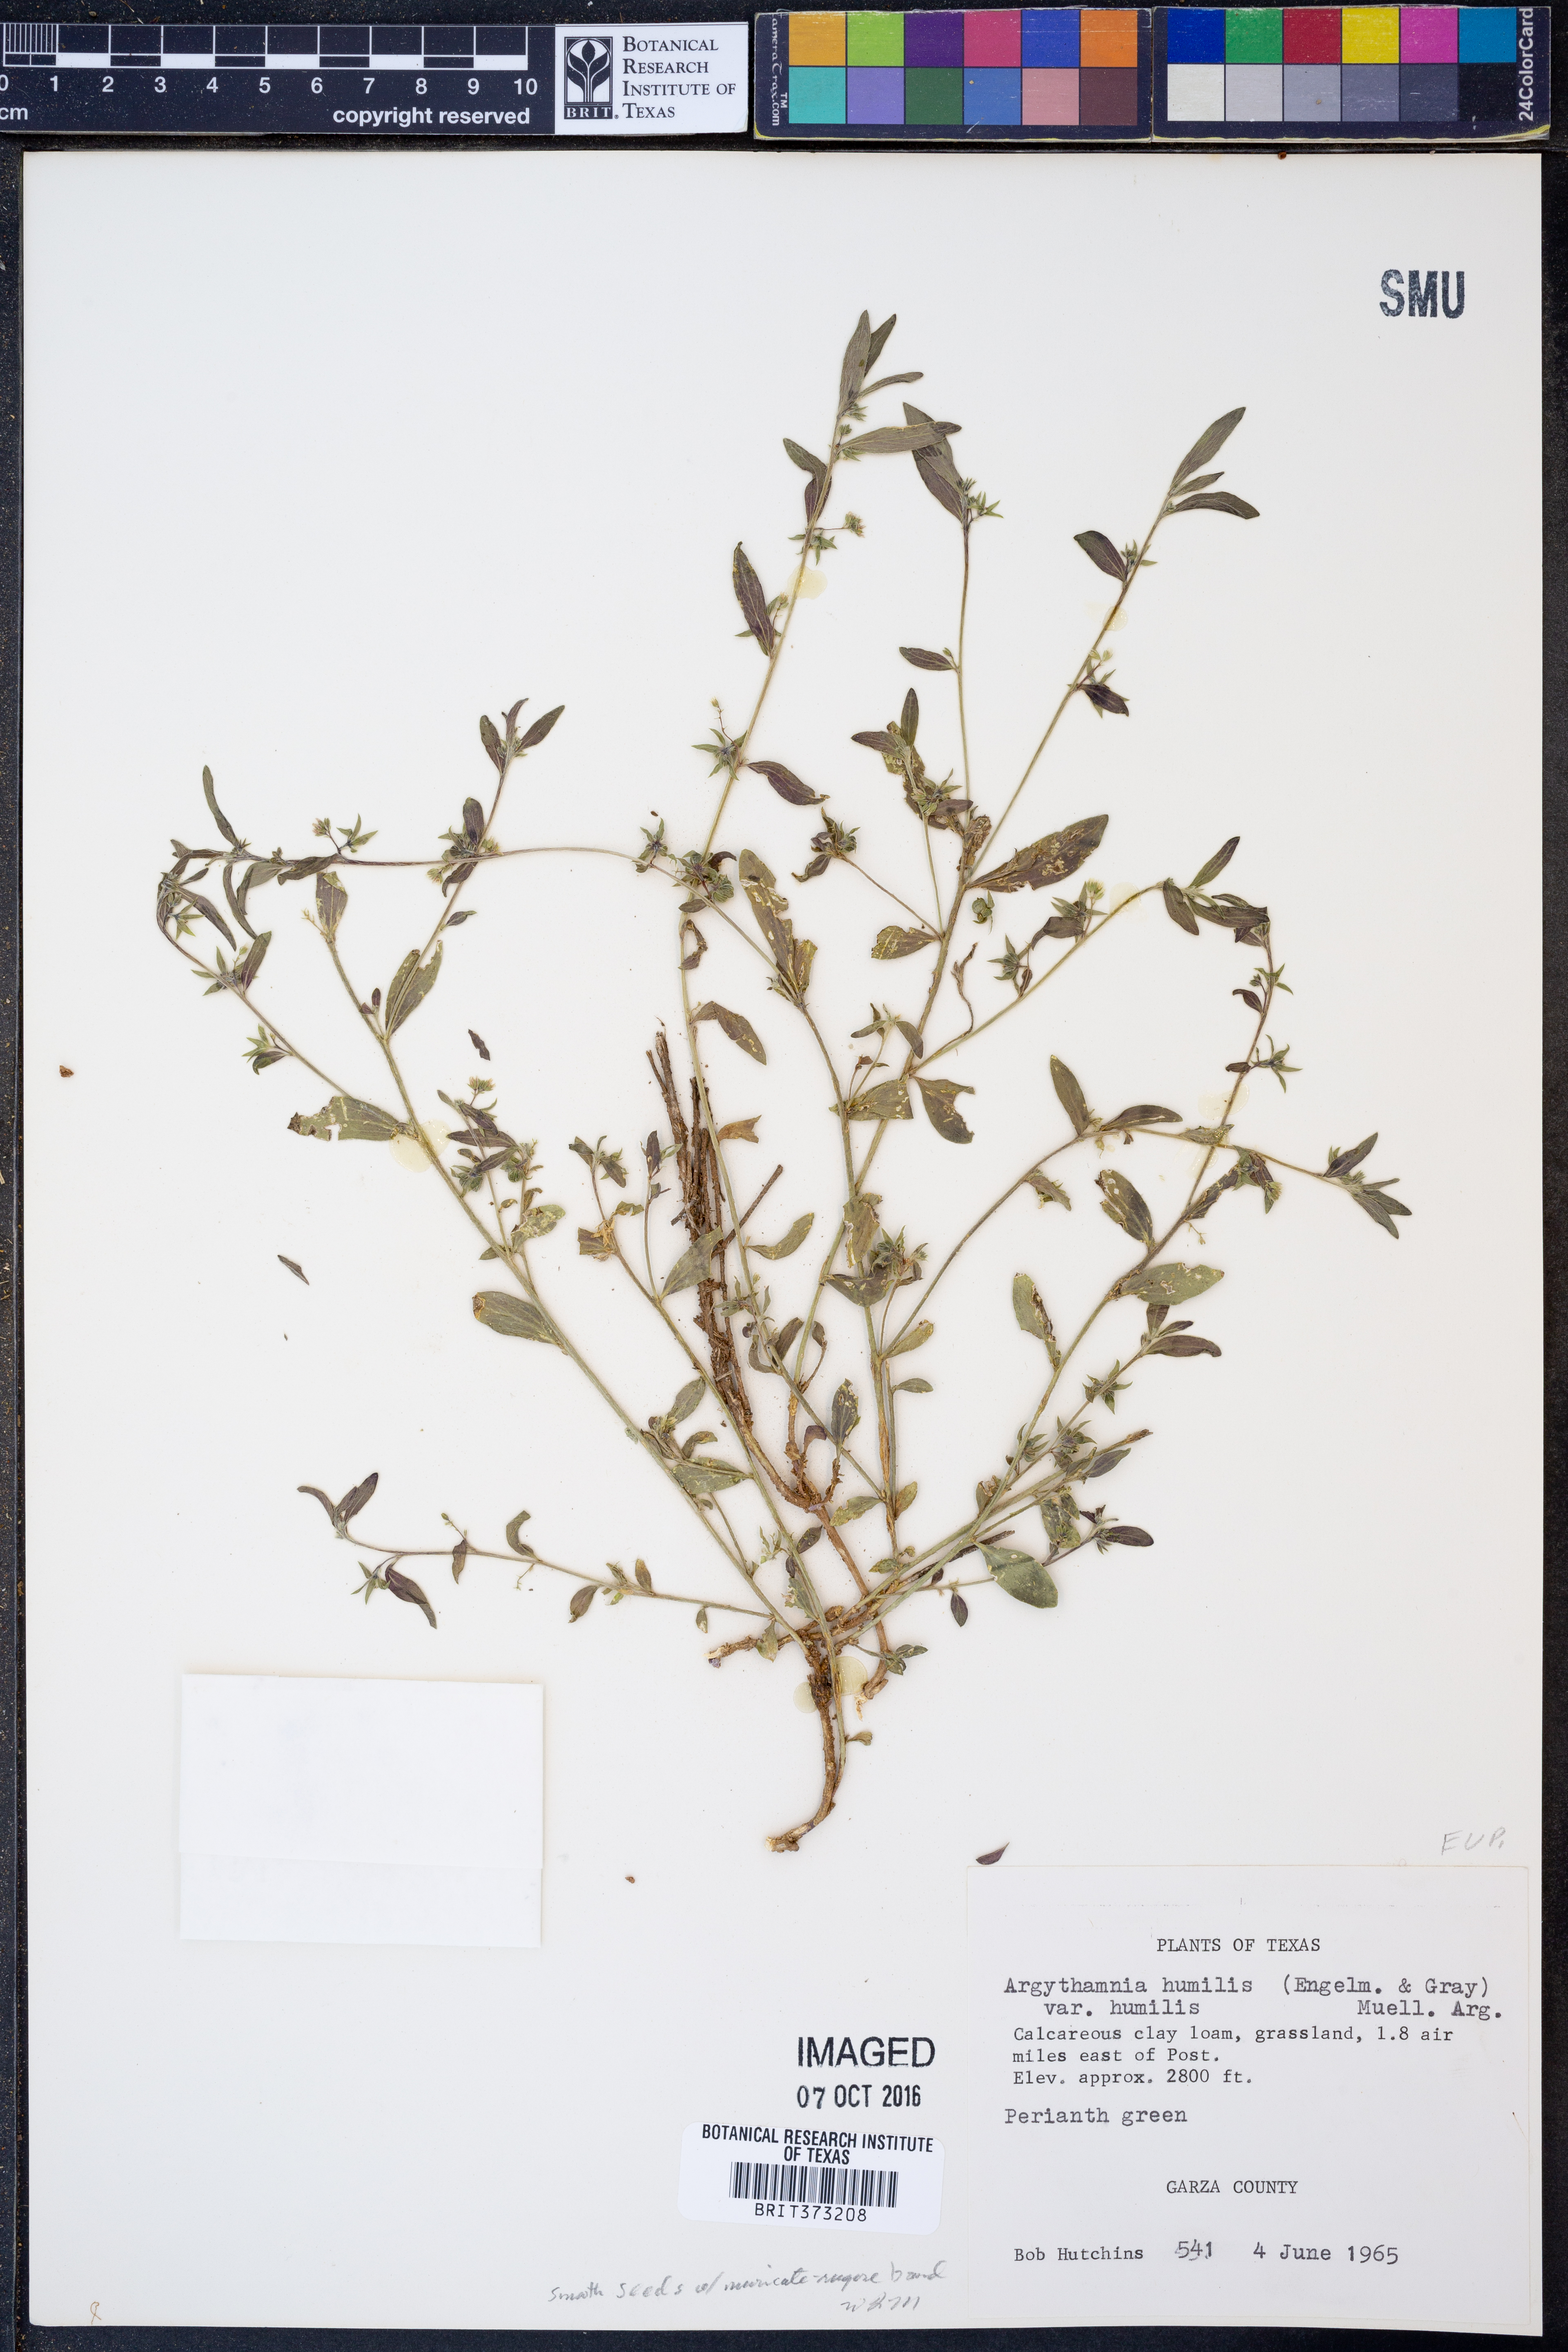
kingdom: Plantae
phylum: Tracheophyta
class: Magnoliopsida
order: Malpighiales
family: Euphorbiaceae
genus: Ditaxis
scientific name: Ditaxis humilis
